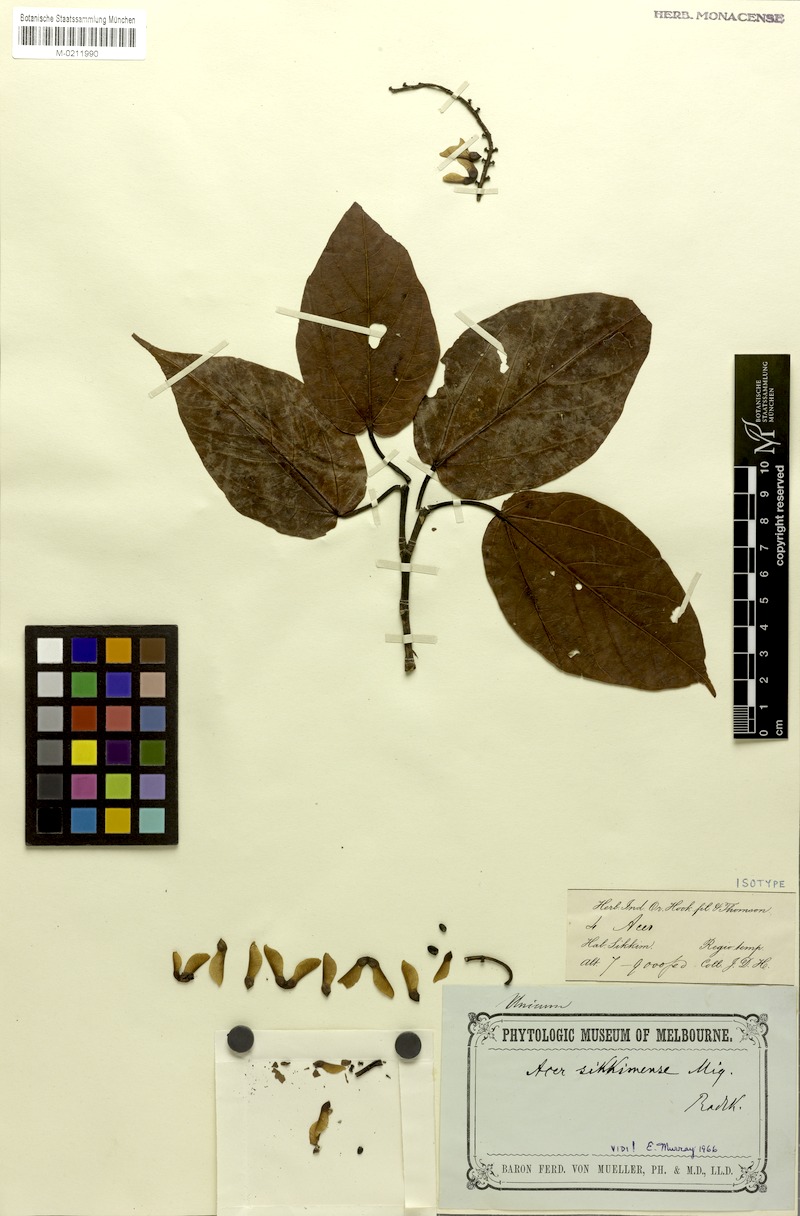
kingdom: Plantae
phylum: Tracheophyta
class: Magnoliopsida
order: Sapindales
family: Sapindaceae
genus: Acer
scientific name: Acer sikkimense
